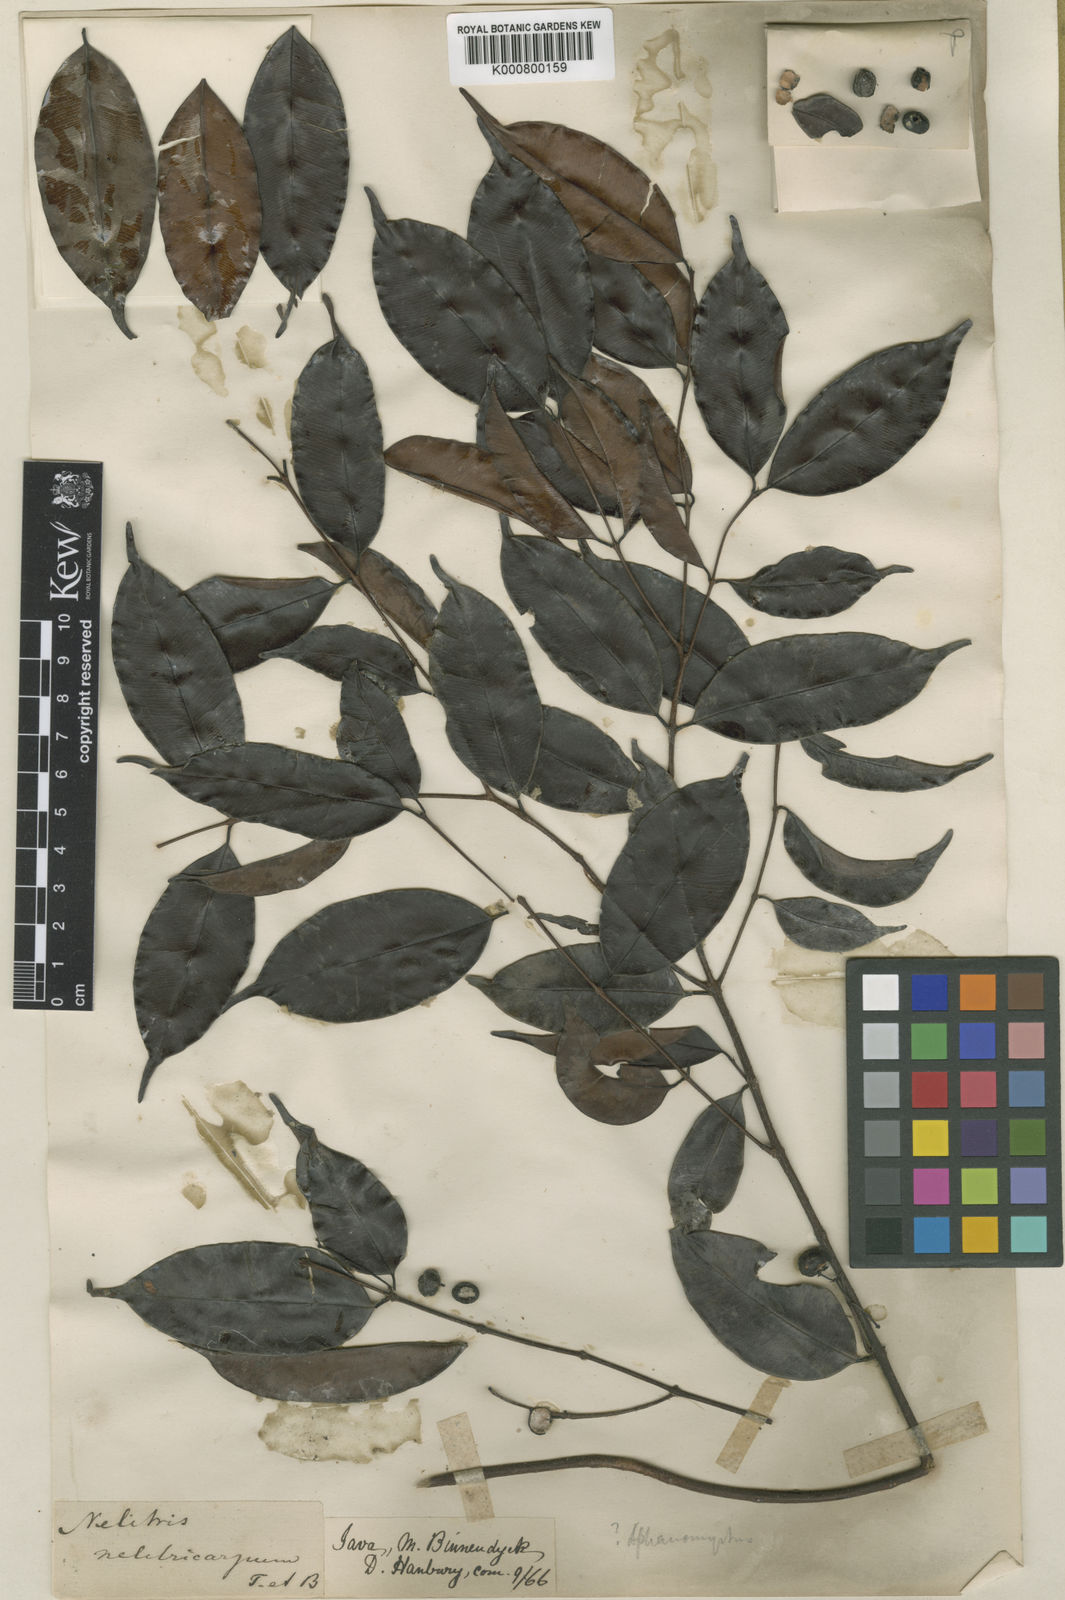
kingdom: Plantae
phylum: Tracheophyta
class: Magnoliopsida
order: Myrtales
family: Myrtaceae
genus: Syzygium
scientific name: Syzygium minutiflorum
